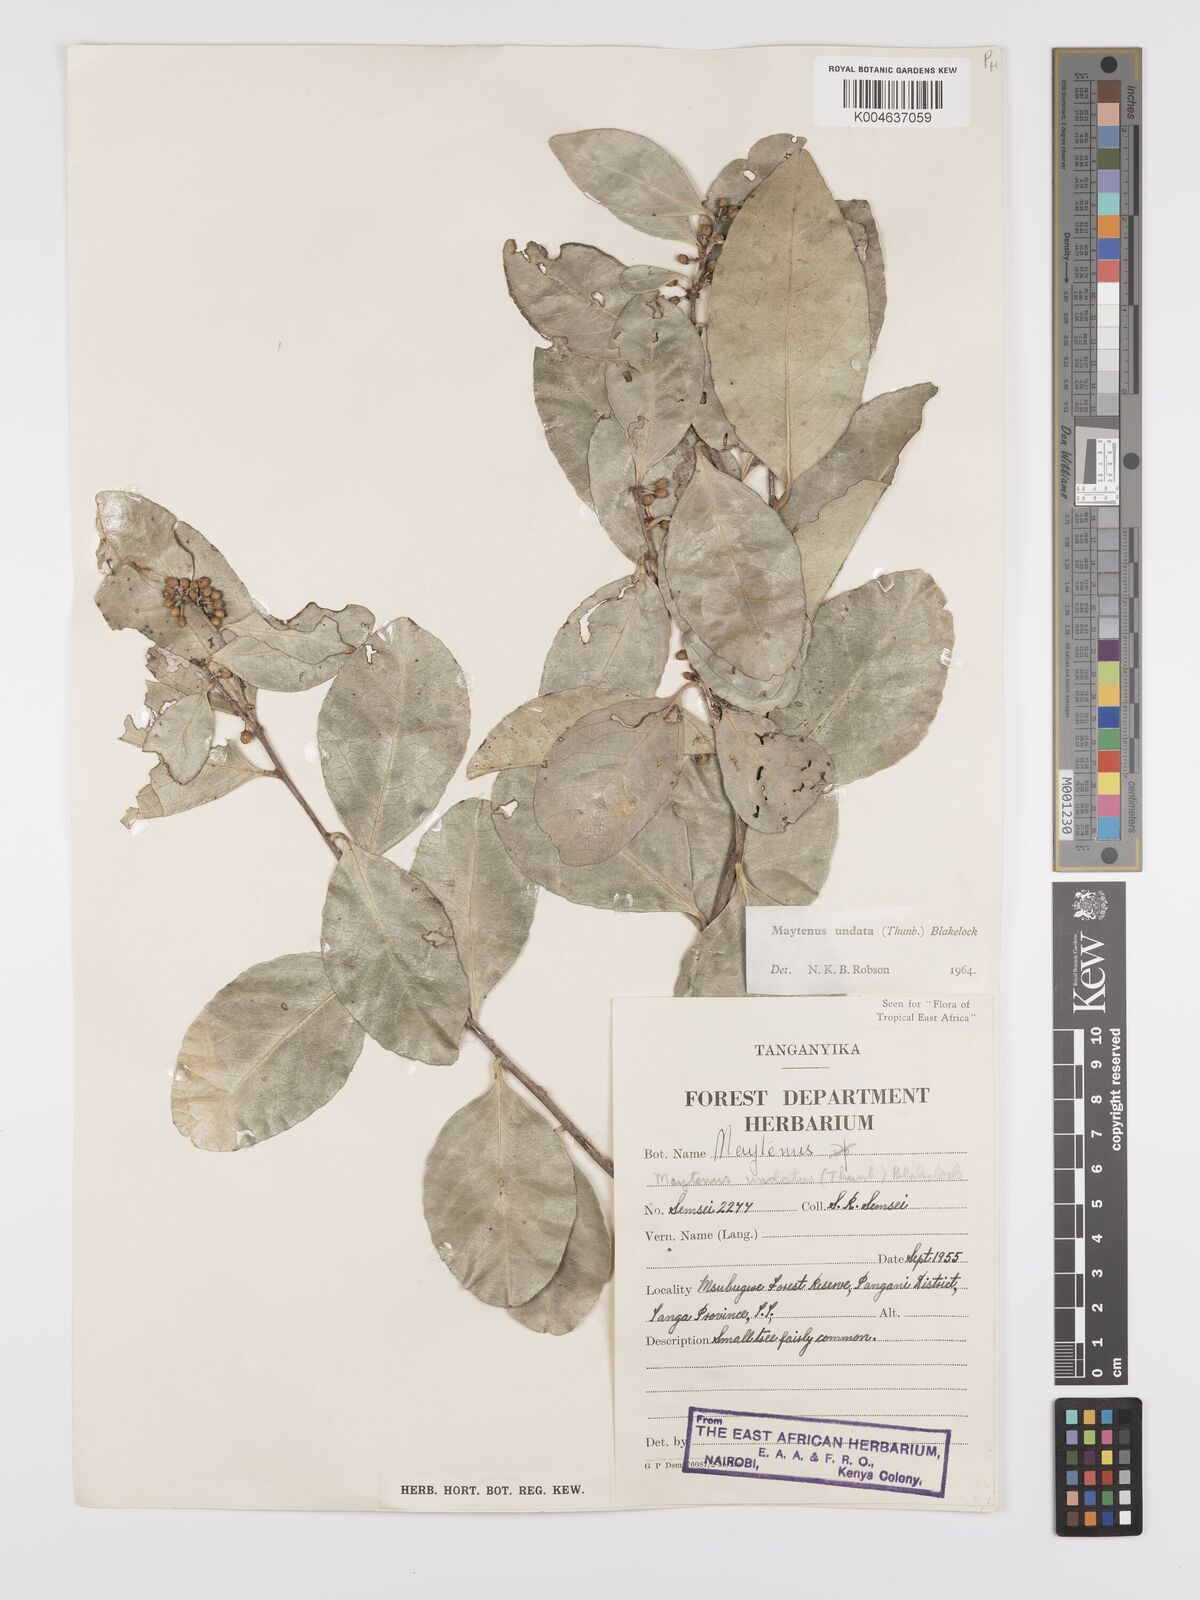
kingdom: Plantae
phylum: Tracheophyta
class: Magnoliopsida
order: Celastrales
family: Celastraceae
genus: Gymnosporia
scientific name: Gymnosporia undata
